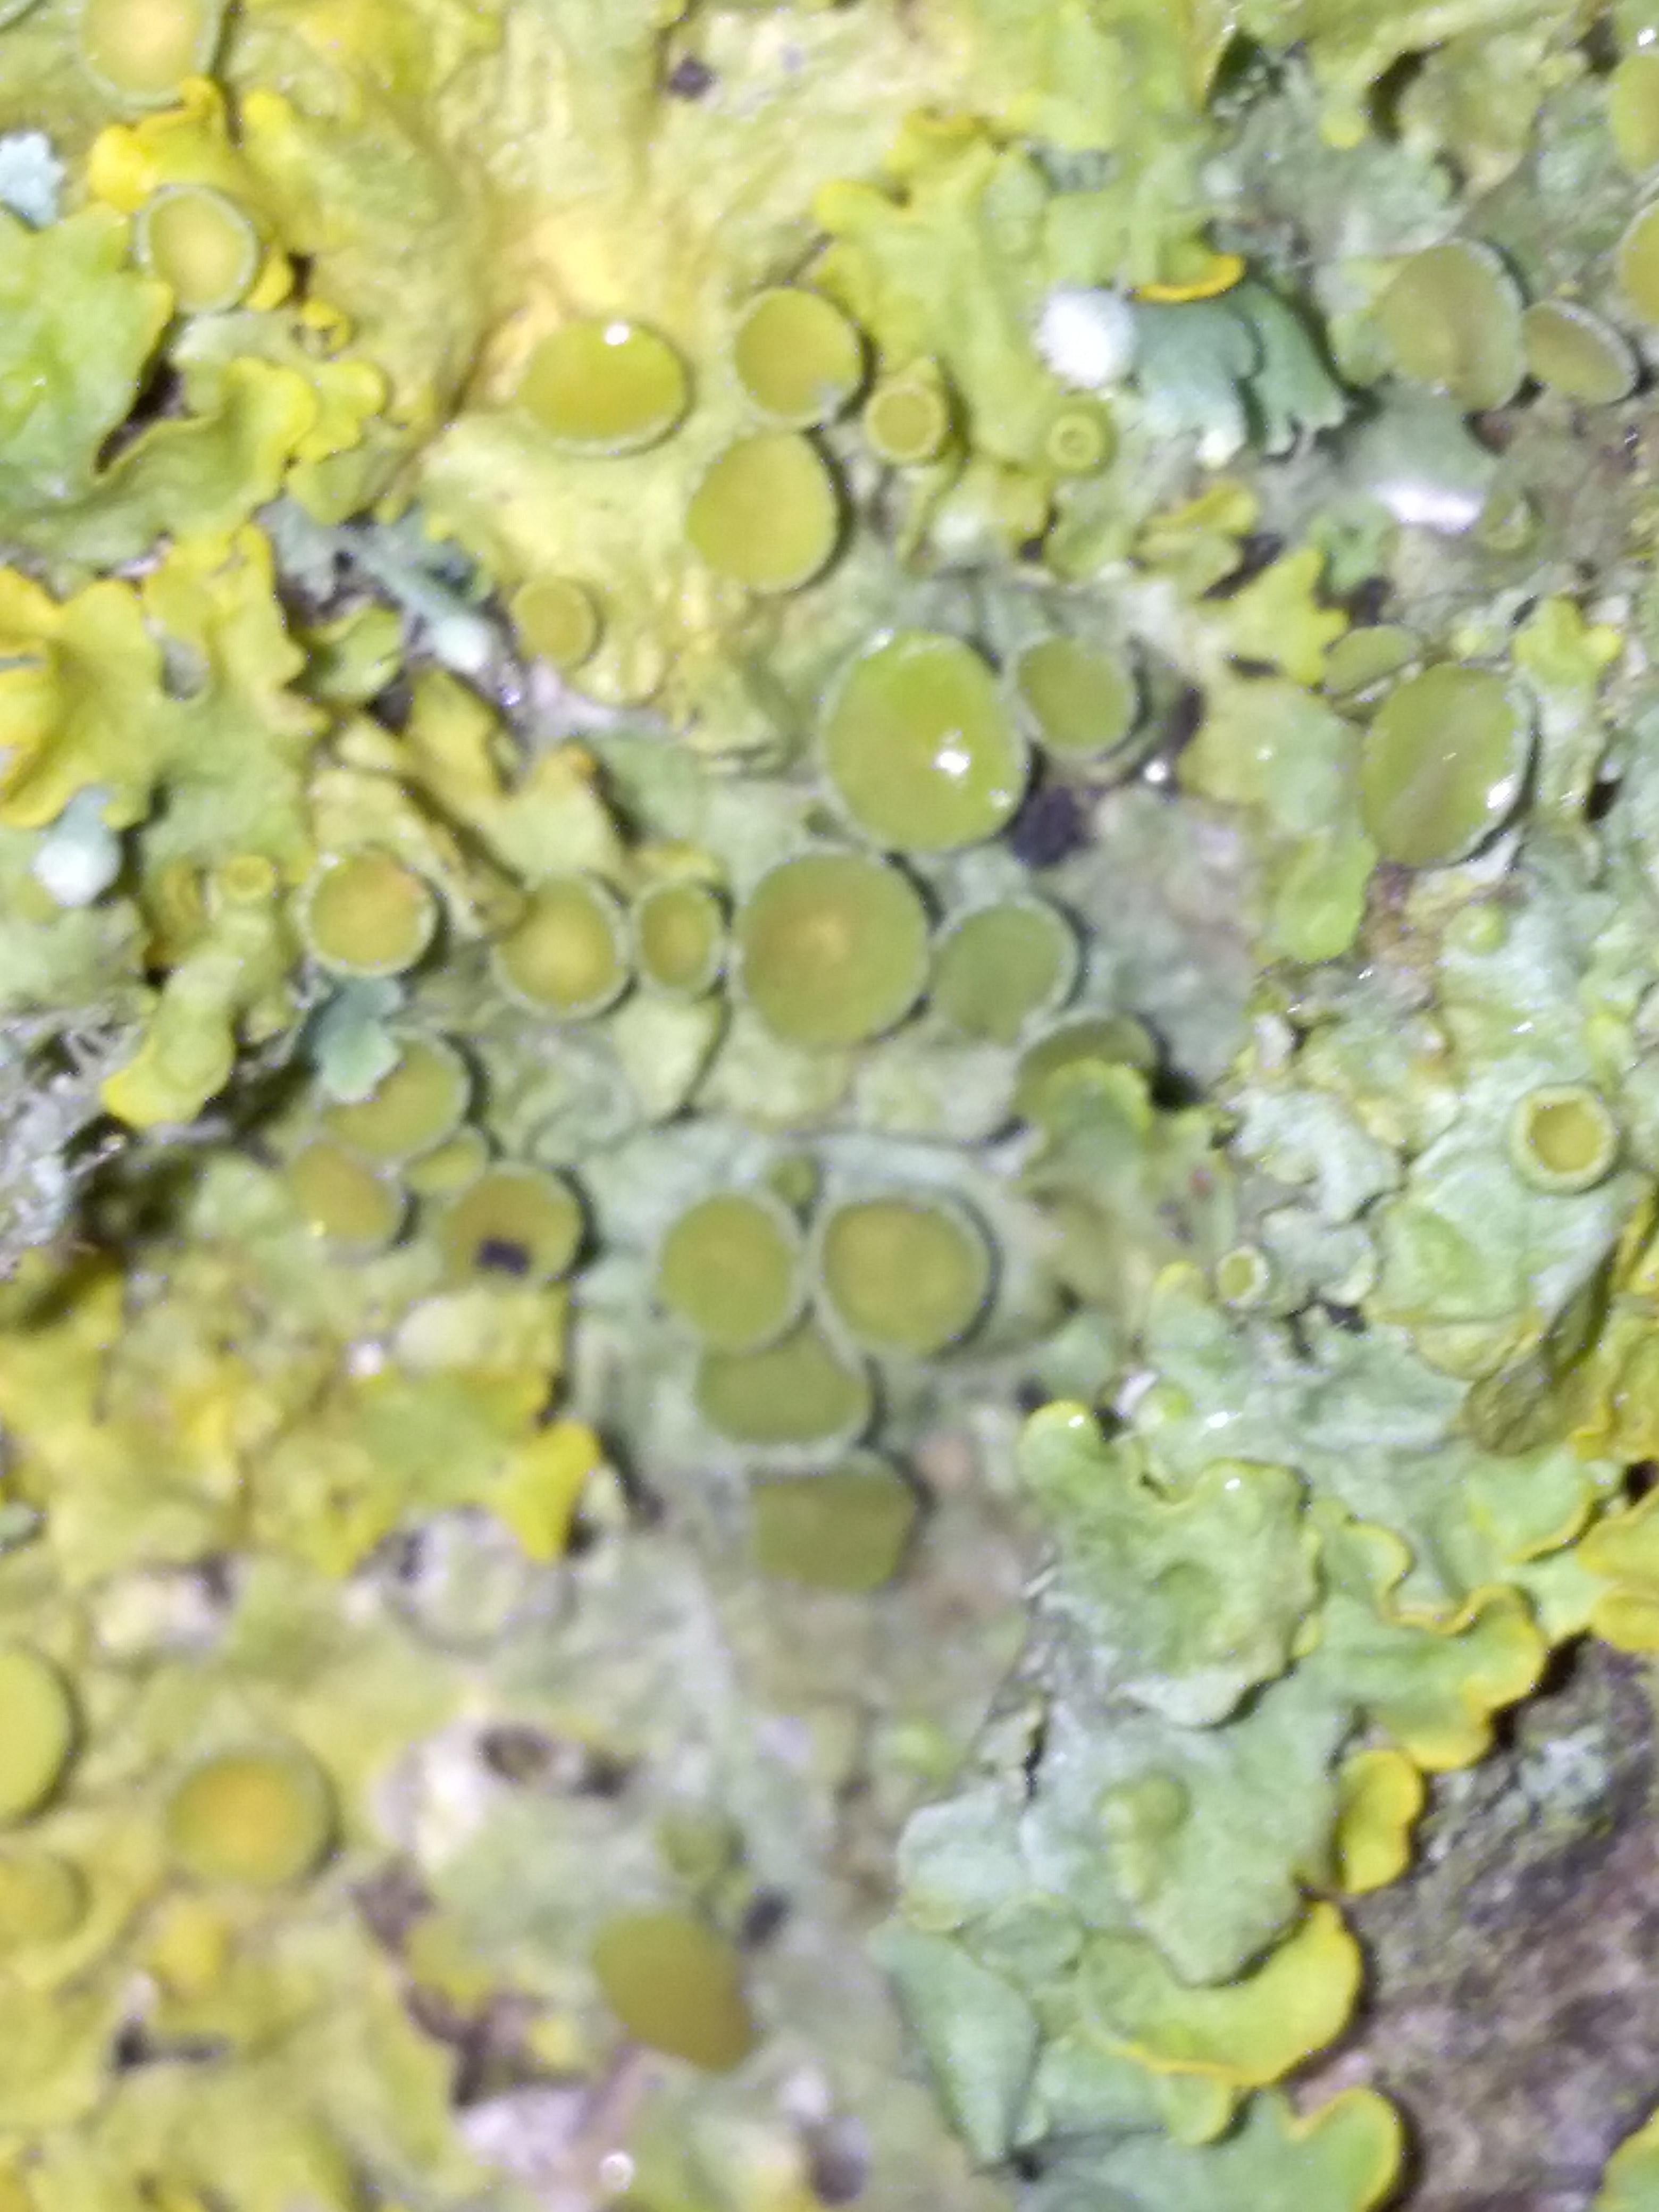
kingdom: Fungi
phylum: Ascomycota
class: Lecanoromycetes
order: Teloschistales
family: Teloschistaceae
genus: Xanthoria
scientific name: Xanthoria parietina
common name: almindelig væggelav
